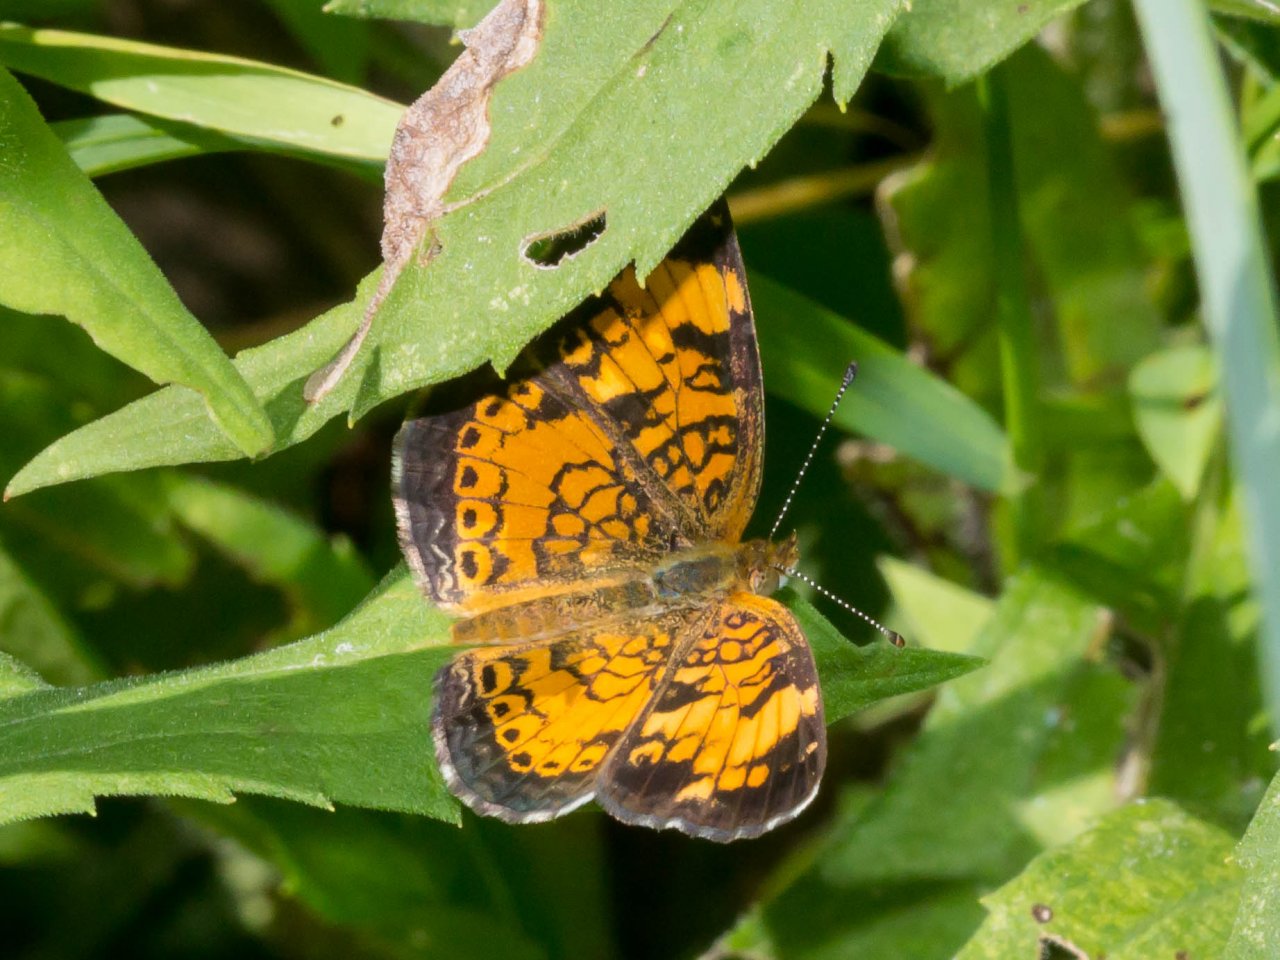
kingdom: Animalia
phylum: Arthropoda
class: Insecta
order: Lepidoptera
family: Nymphalidae
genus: Phyciodes
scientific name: Phyciodes tharos
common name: Pearl Crescent
